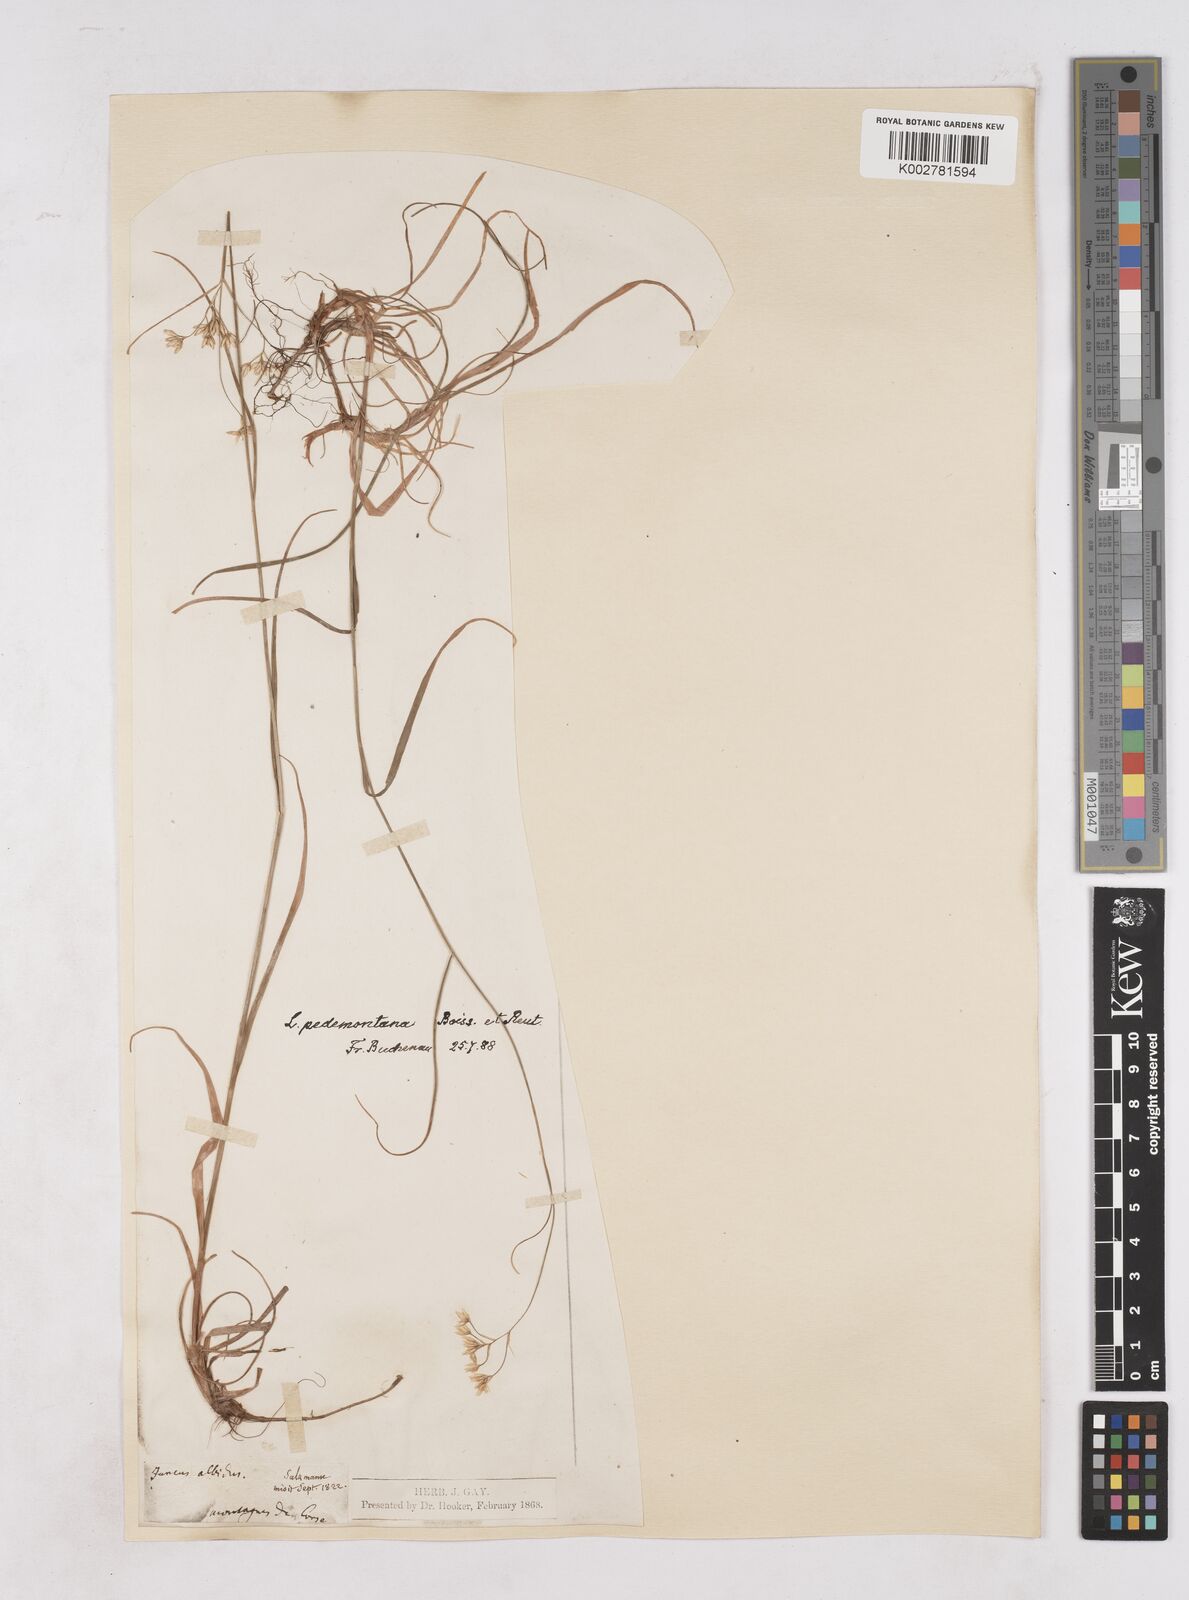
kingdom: Plantae
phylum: Tracheophyta
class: Liliopsida
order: Poales
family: Juncaceae
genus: Luzula
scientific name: Luzula pedemontana
